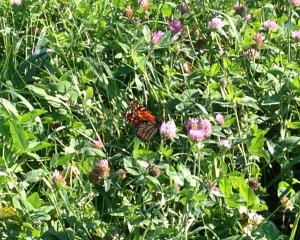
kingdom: Animalia
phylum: Arthropoda
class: Insecta
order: Lepidoptera
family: Nymphalidae
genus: Danaus
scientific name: Danaus plexippus
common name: Monarch
